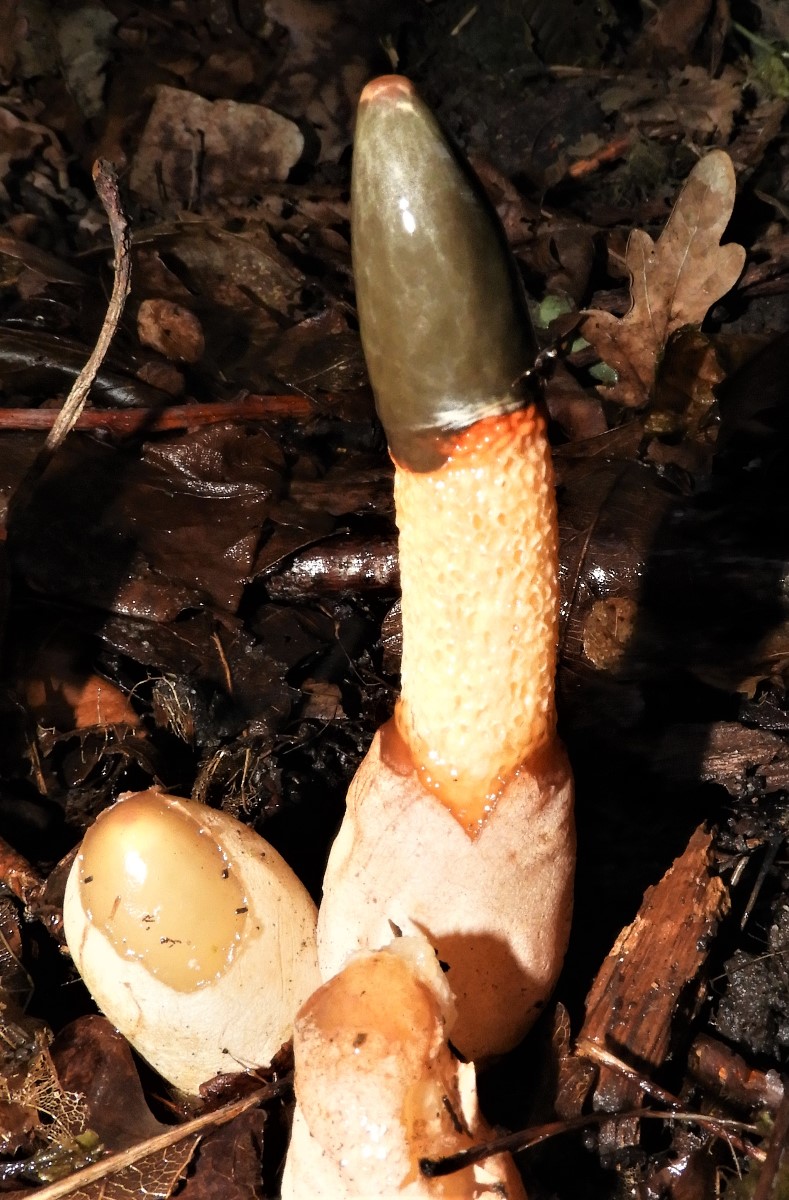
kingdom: Fungi
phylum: Basidiomycota
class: Agaricomycetes
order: Phallales
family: Phallaceae
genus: Mutinus
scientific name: Mutinus caninus
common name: hunde-stinksvamp
